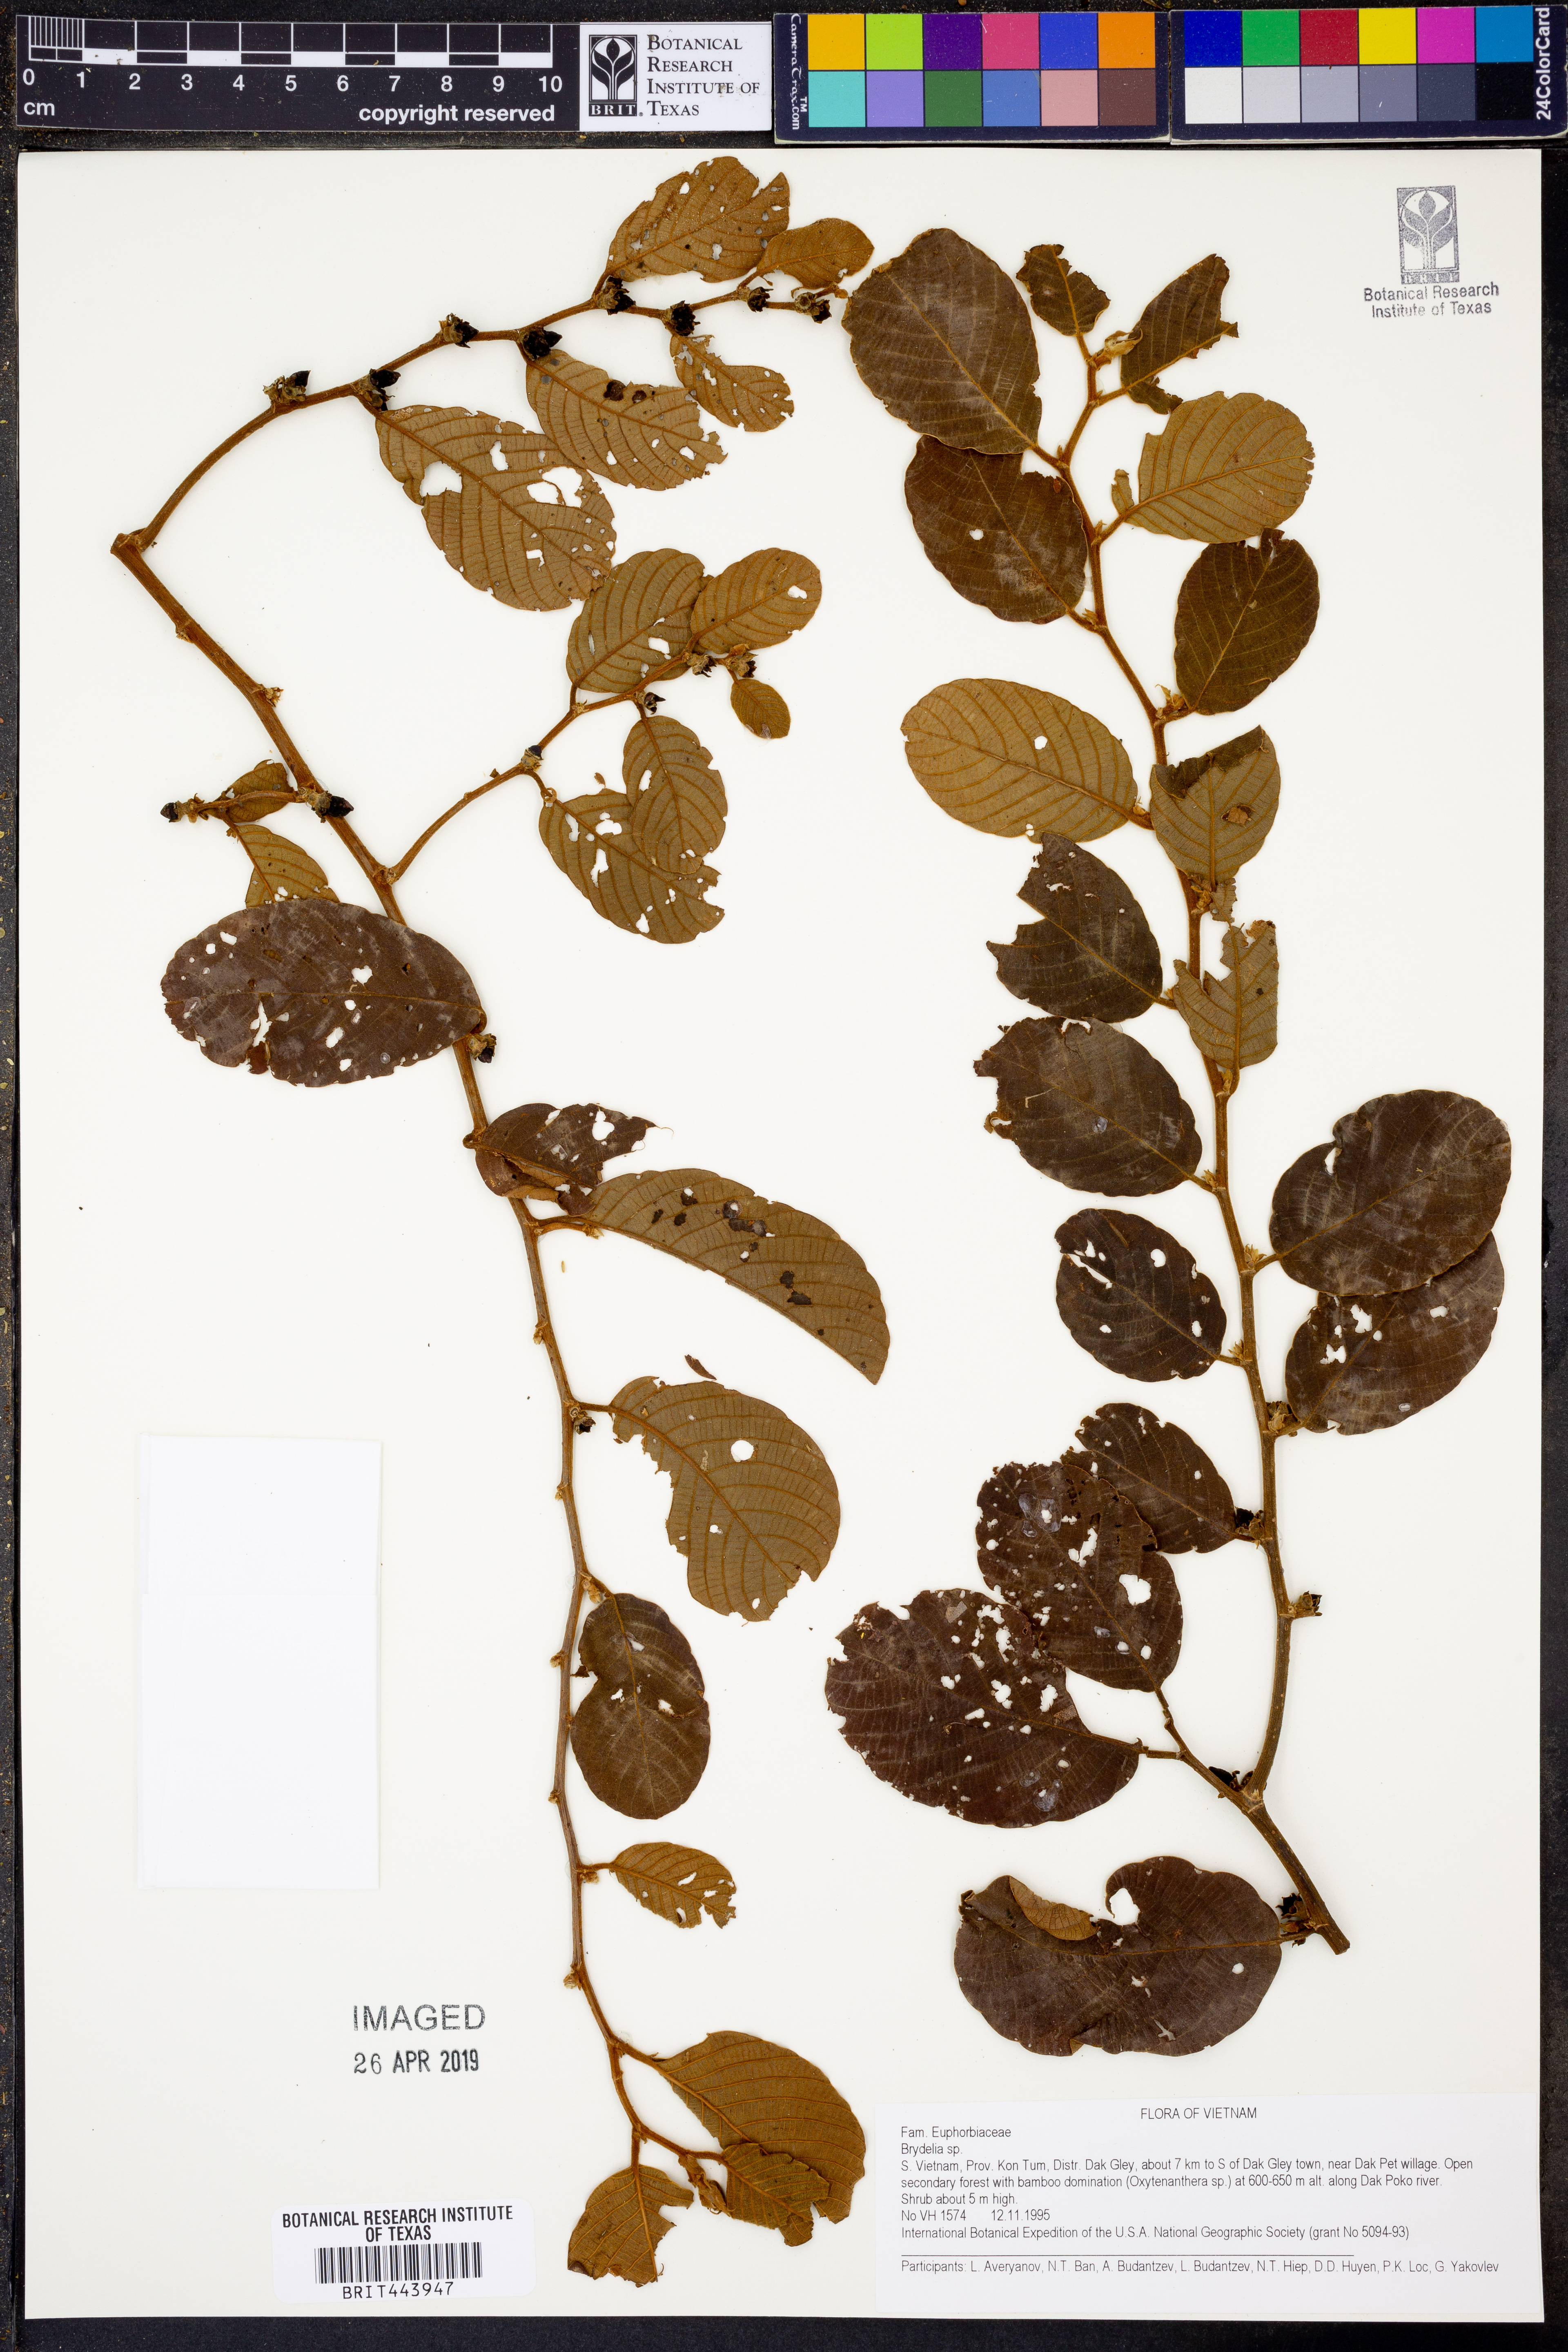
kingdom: Plantae
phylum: Tracheophyta
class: Magnoliopsida
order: Malpighiales
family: Phyllanthaceae
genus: Bridelia
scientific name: Bridelia
